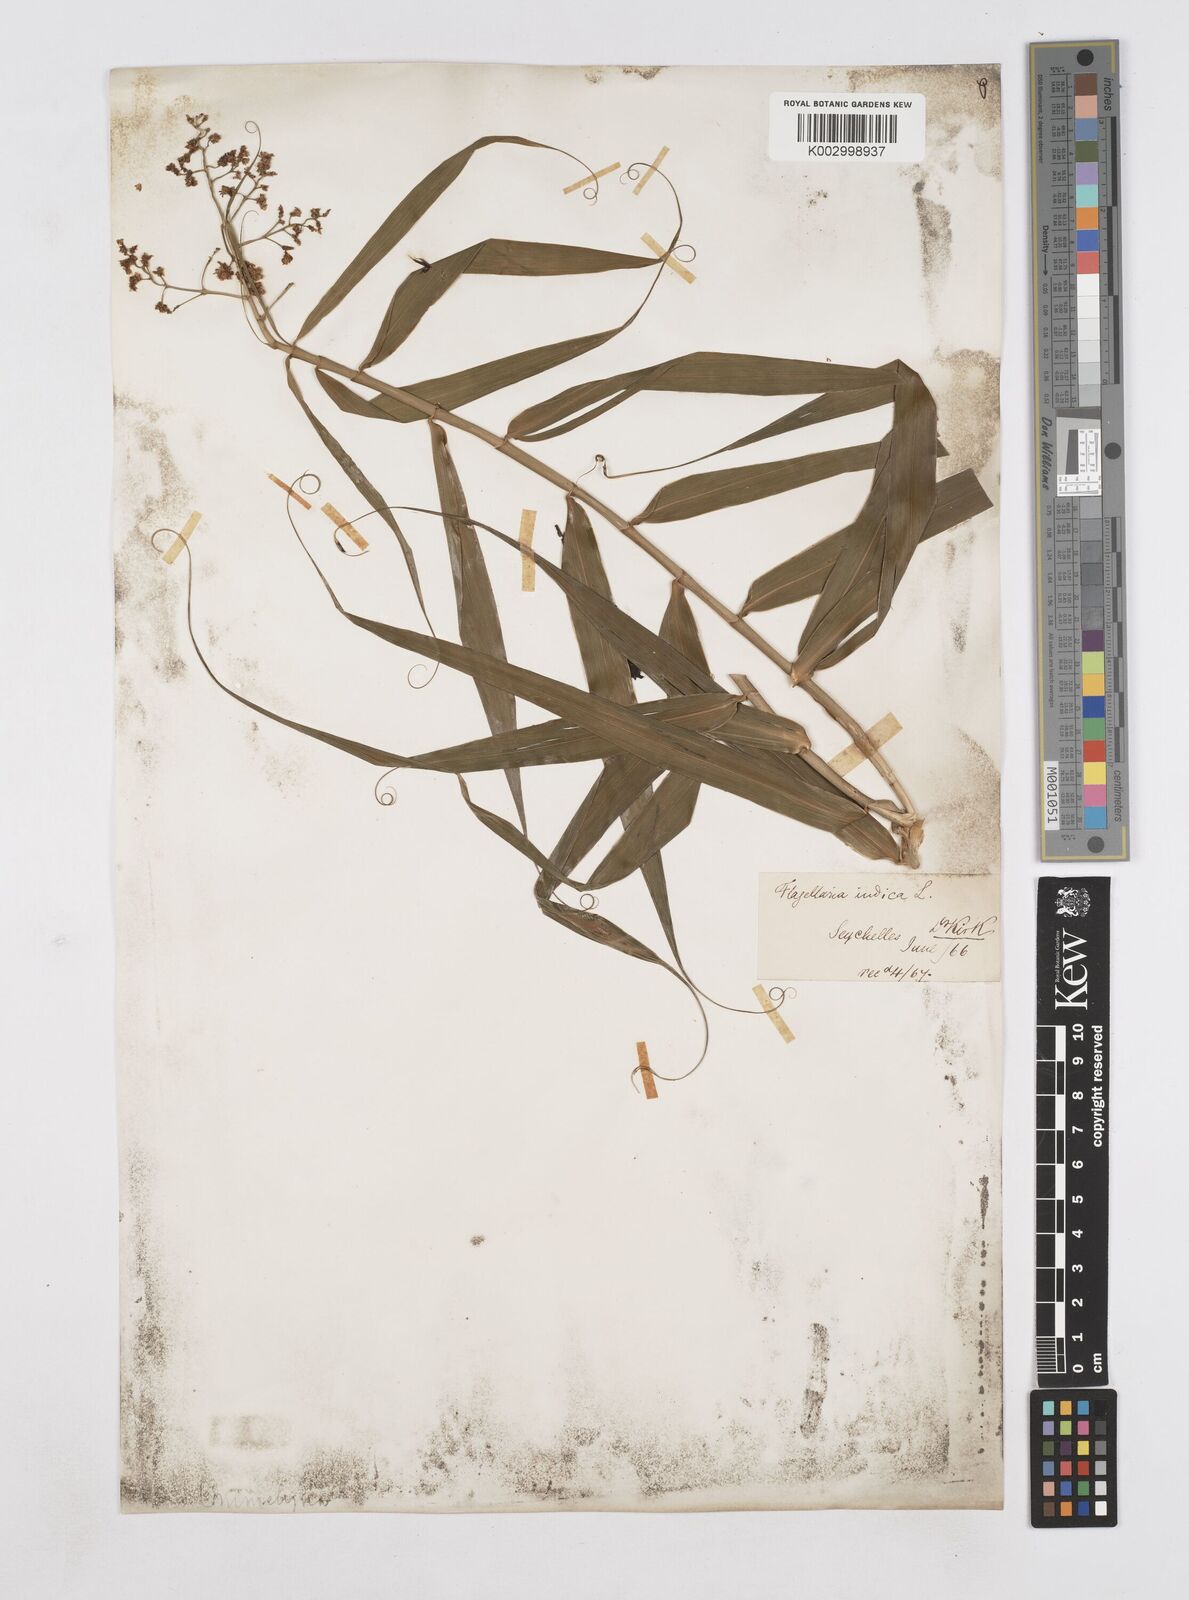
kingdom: Plantae
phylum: Tracheophyta
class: Liliopsida
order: Poales
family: Flagellariaceae
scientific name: Flagellariaceae
